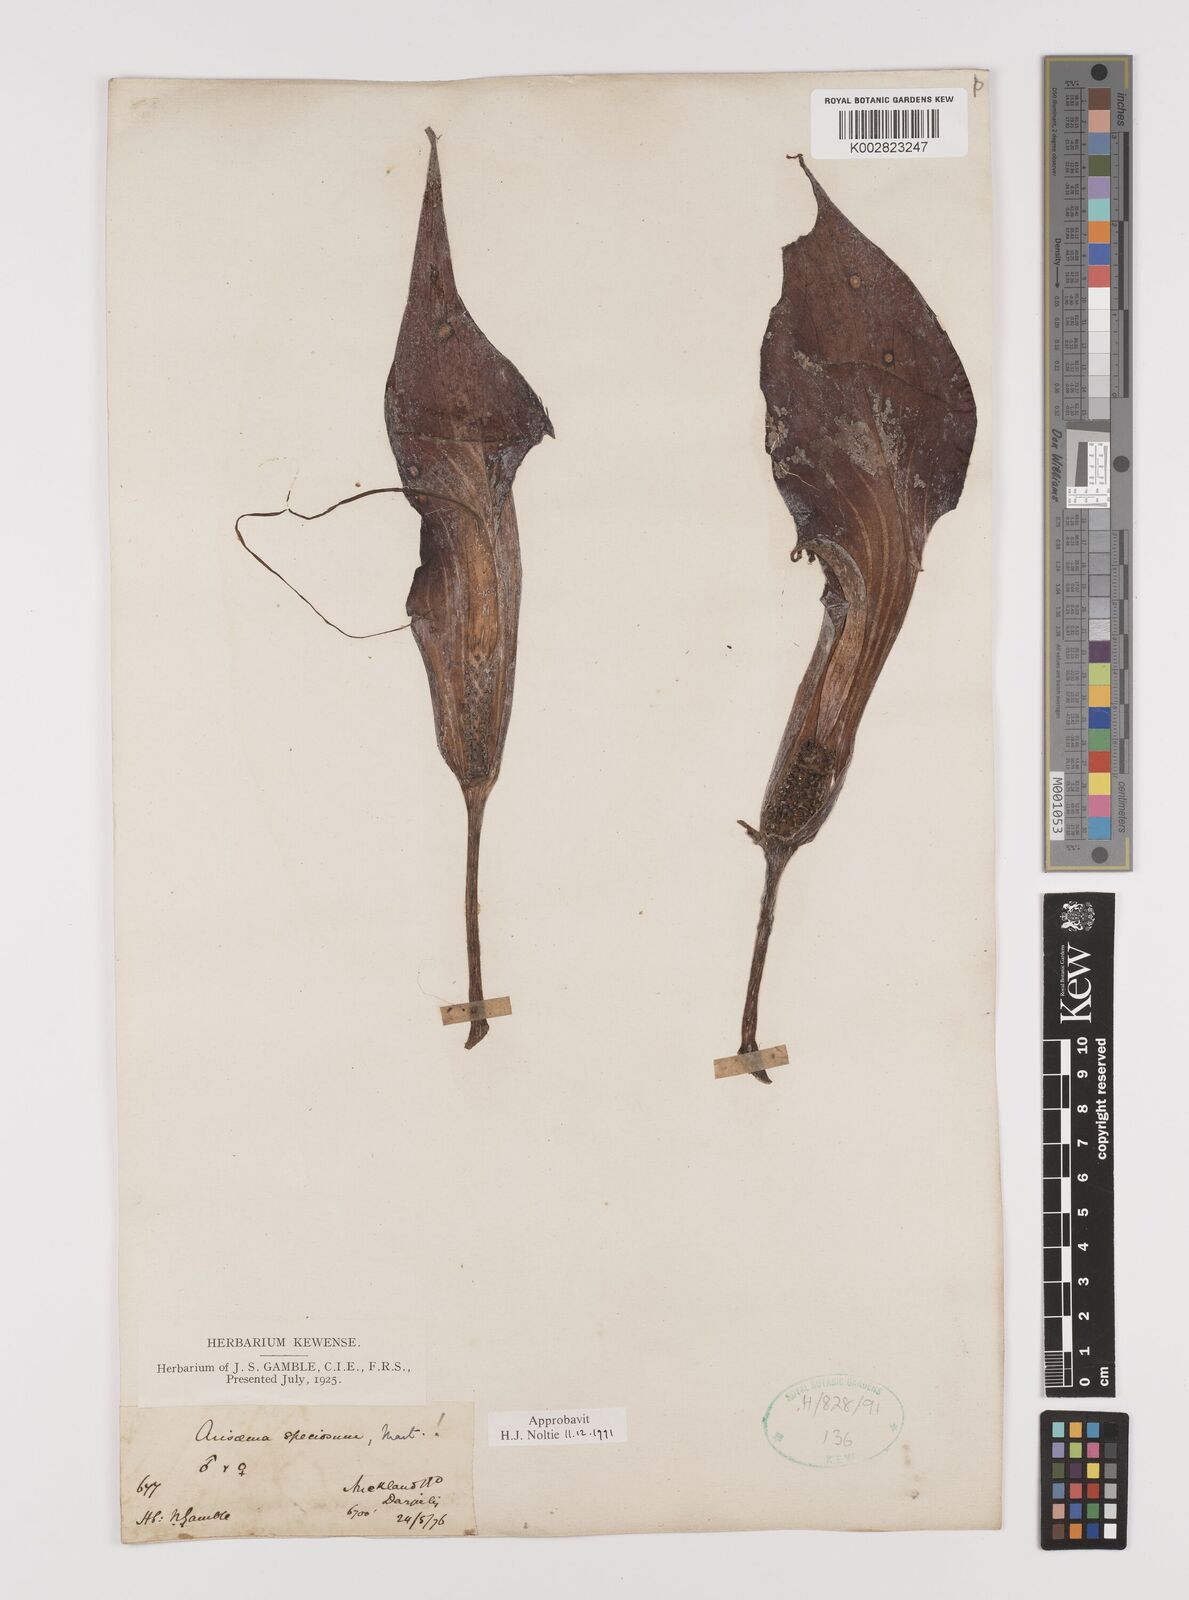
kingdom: Plantae
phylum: Tracheophyta
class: Liliopsida
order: Alismatales
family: Araceae
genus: Arisaema
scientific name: Arisaema speciosum
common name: Showy cobra-lily
